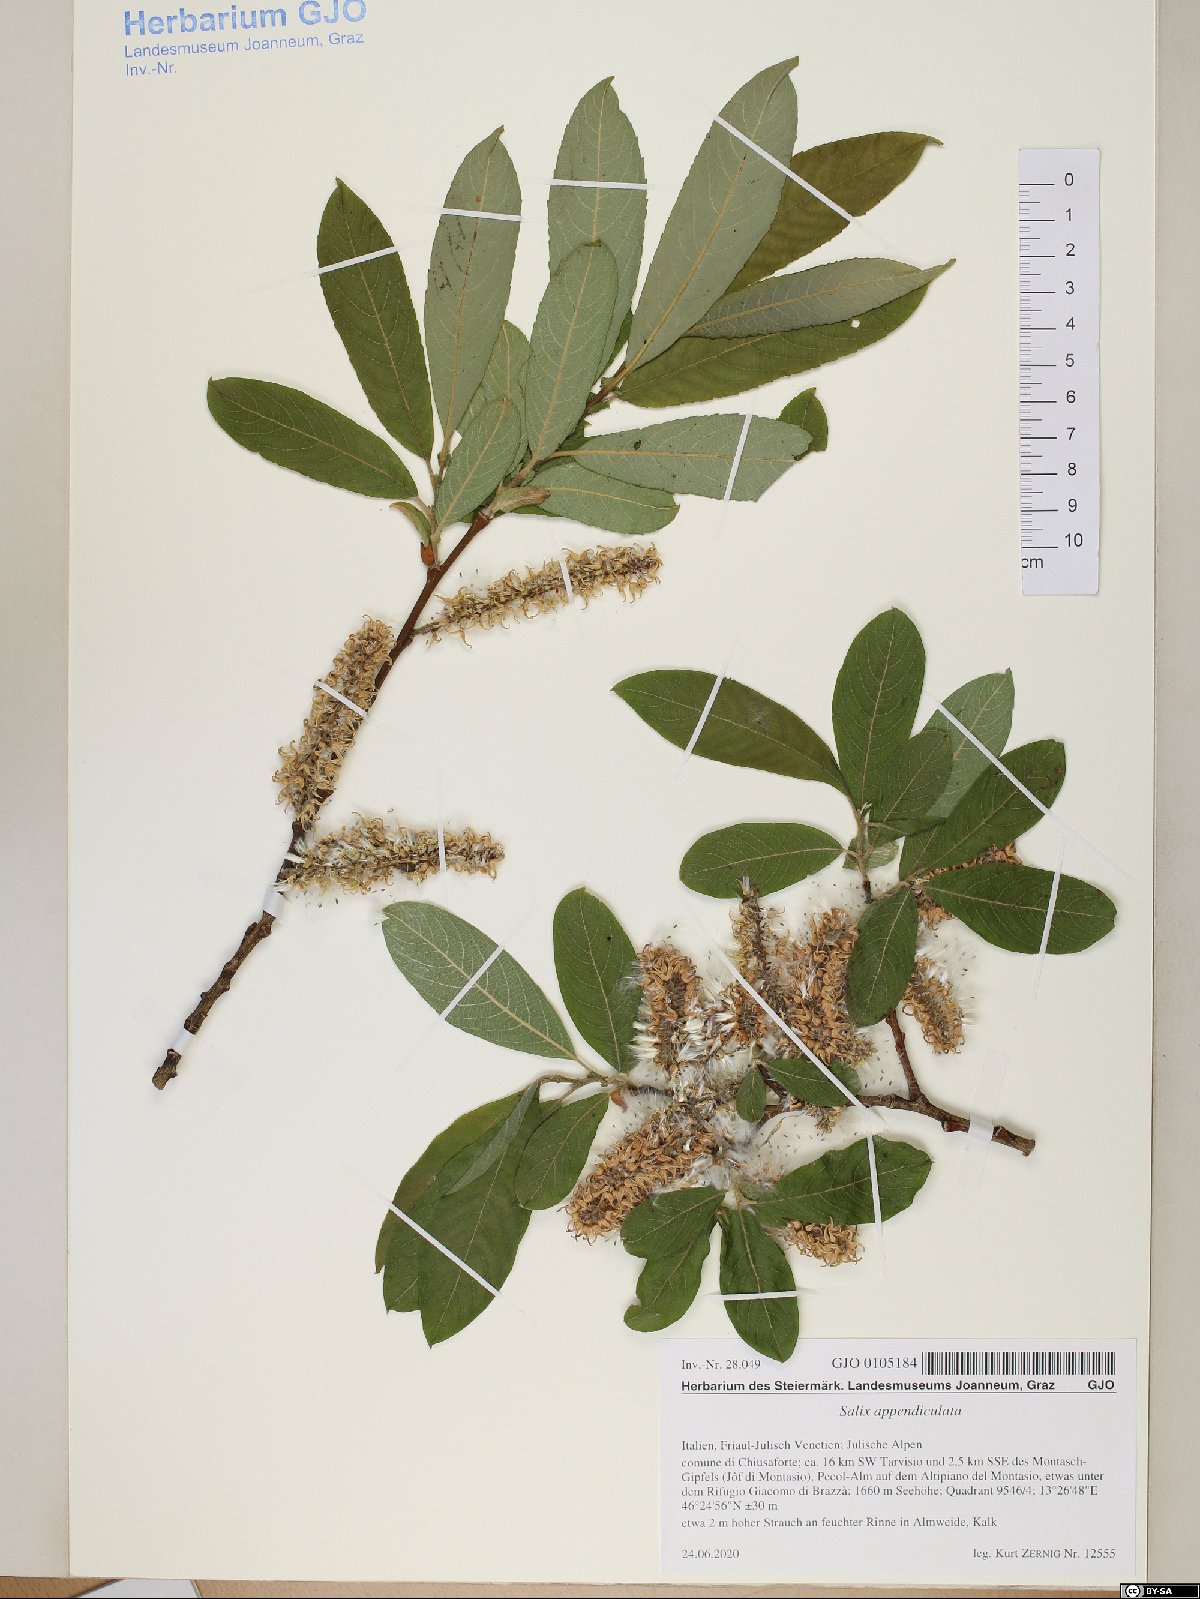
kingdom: Plantae
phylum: Tracheophyta
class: Magnoliopsida
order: Malpighiales
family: Salicaceae
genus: Salix
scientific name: Salix appendiculata
